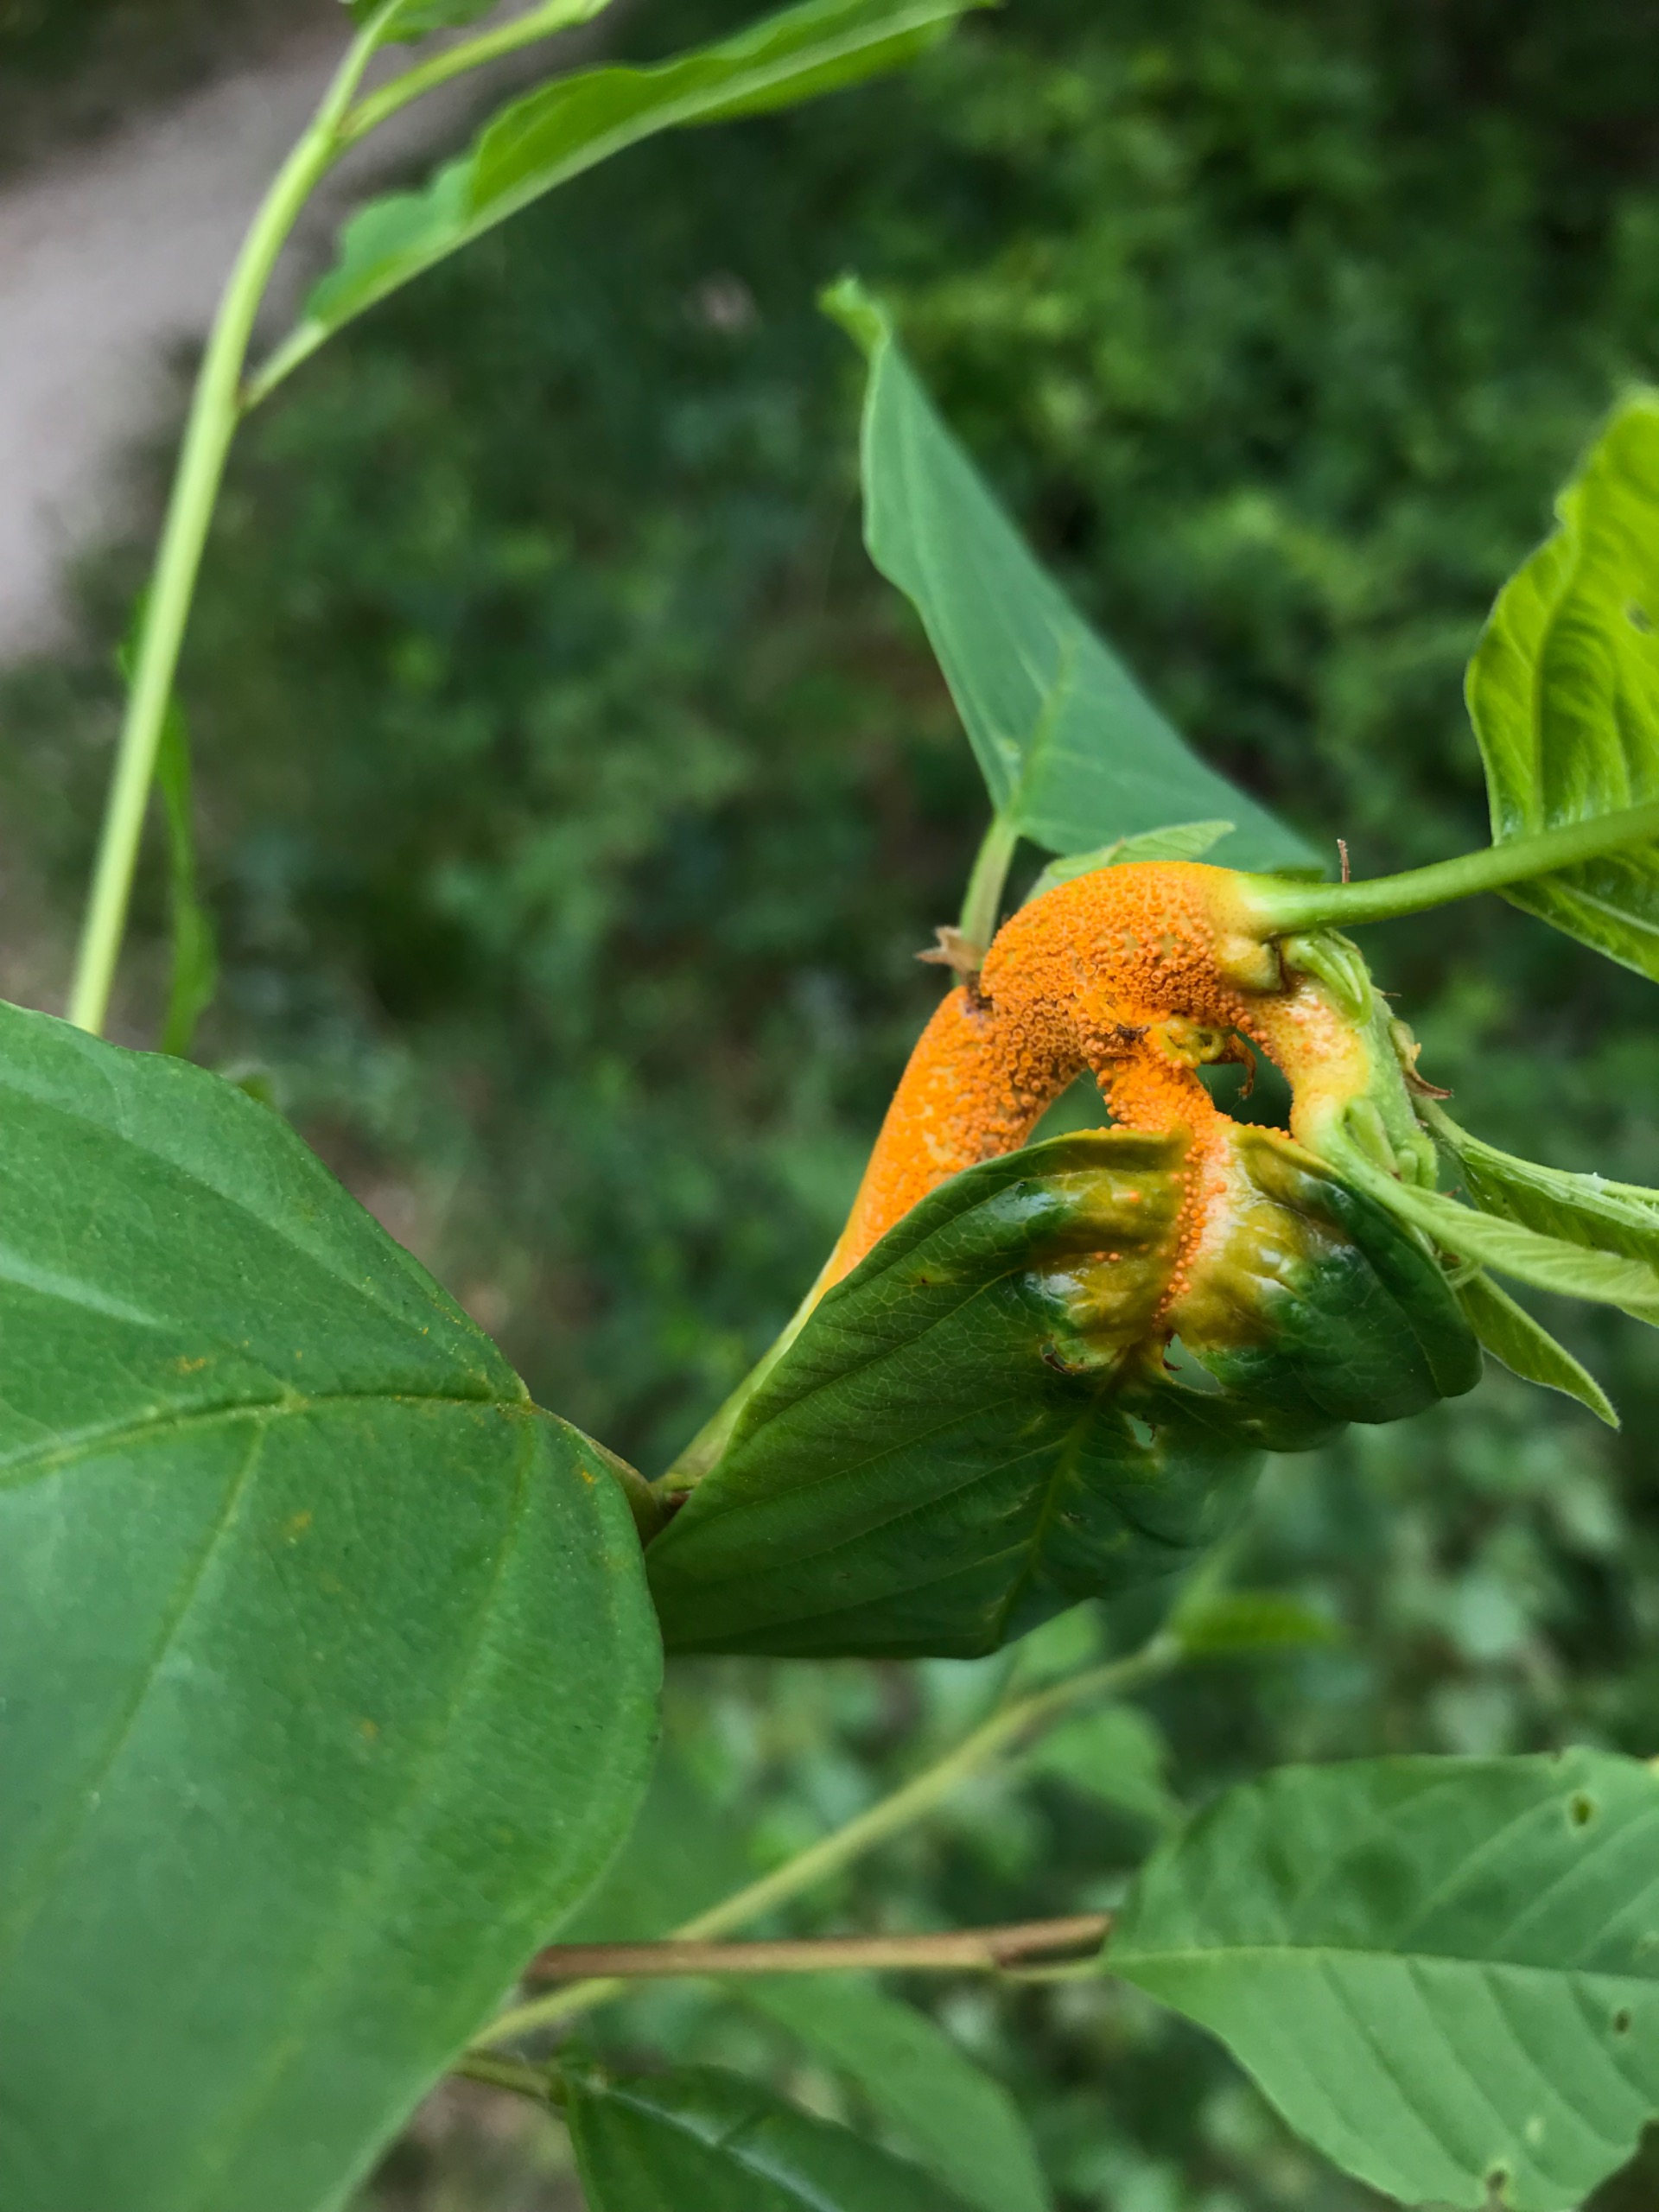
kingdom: Fungi
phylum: Basidiomycota
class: Pucciniomycetes
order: Pucciniales
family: Pucciniaceae
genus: Puccinia
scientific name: Puccinia coronata
